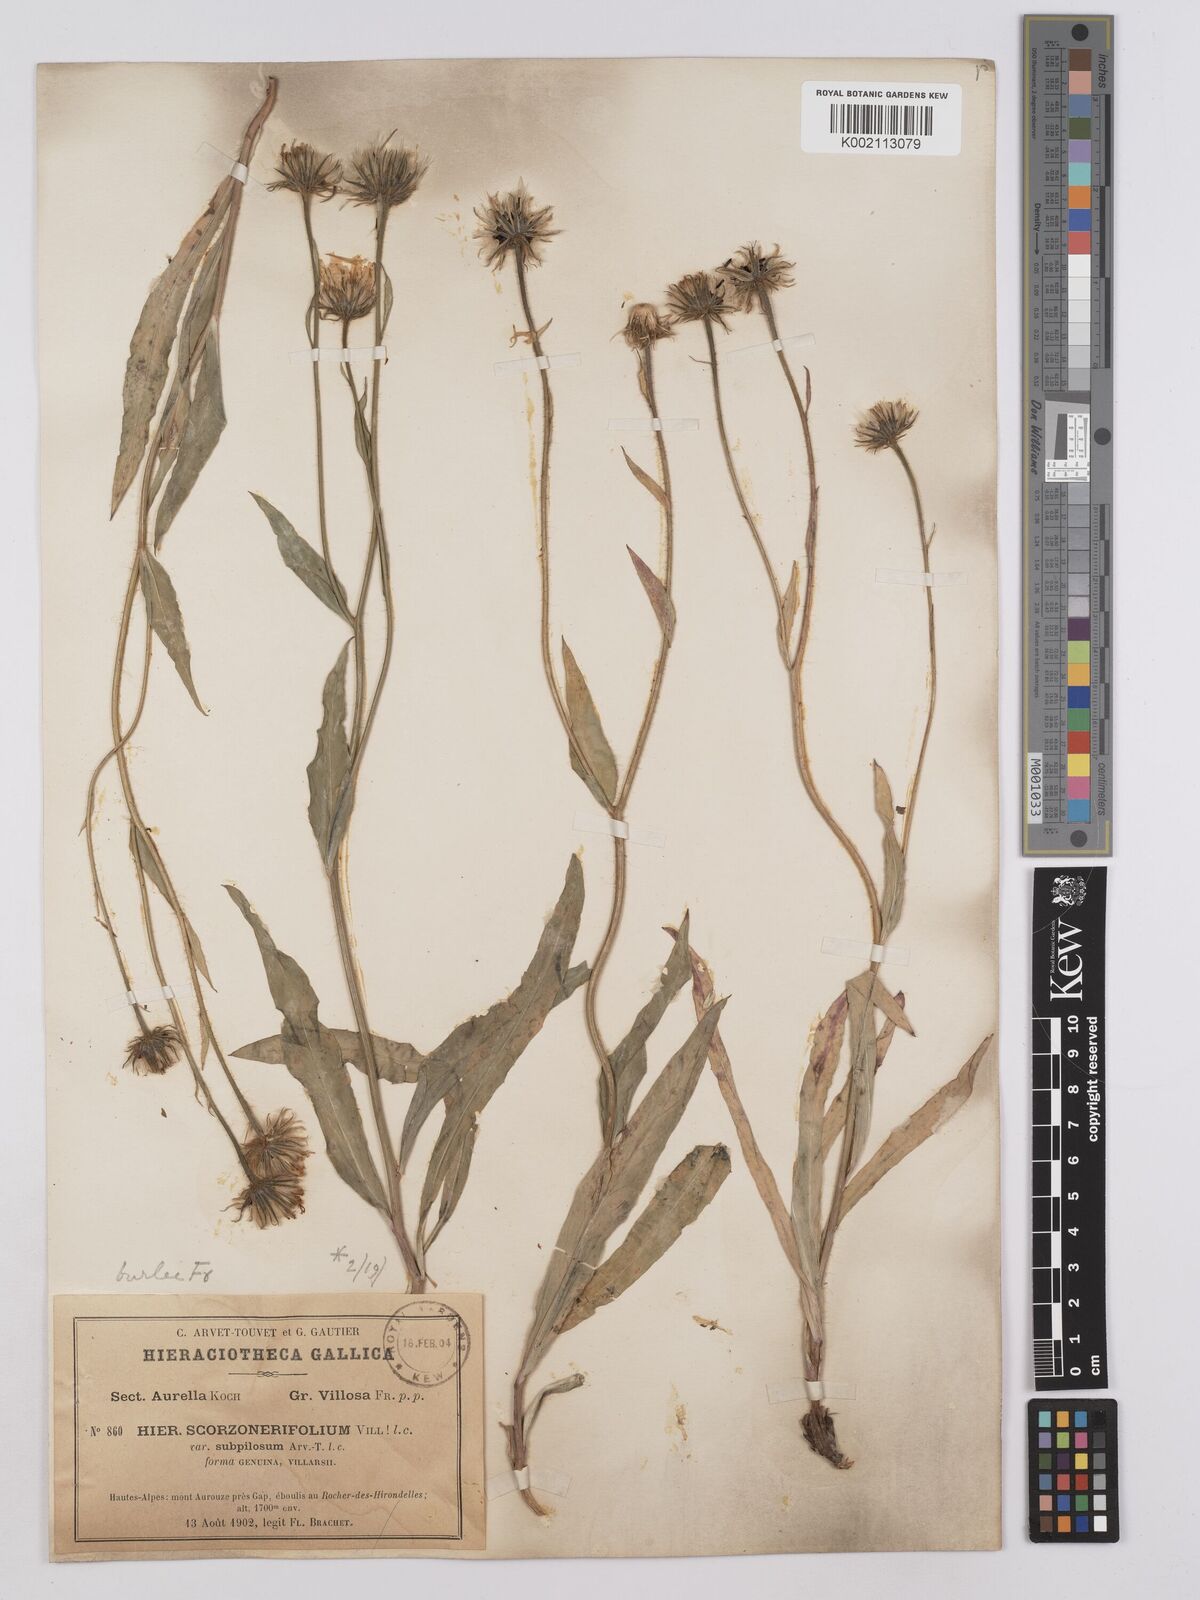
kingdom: Plantae
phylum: Tracheophyta
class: Magnoliopsida
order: Asterales
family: Asteraceae
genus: Hieracium
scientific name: Hieracium bupleuroides
